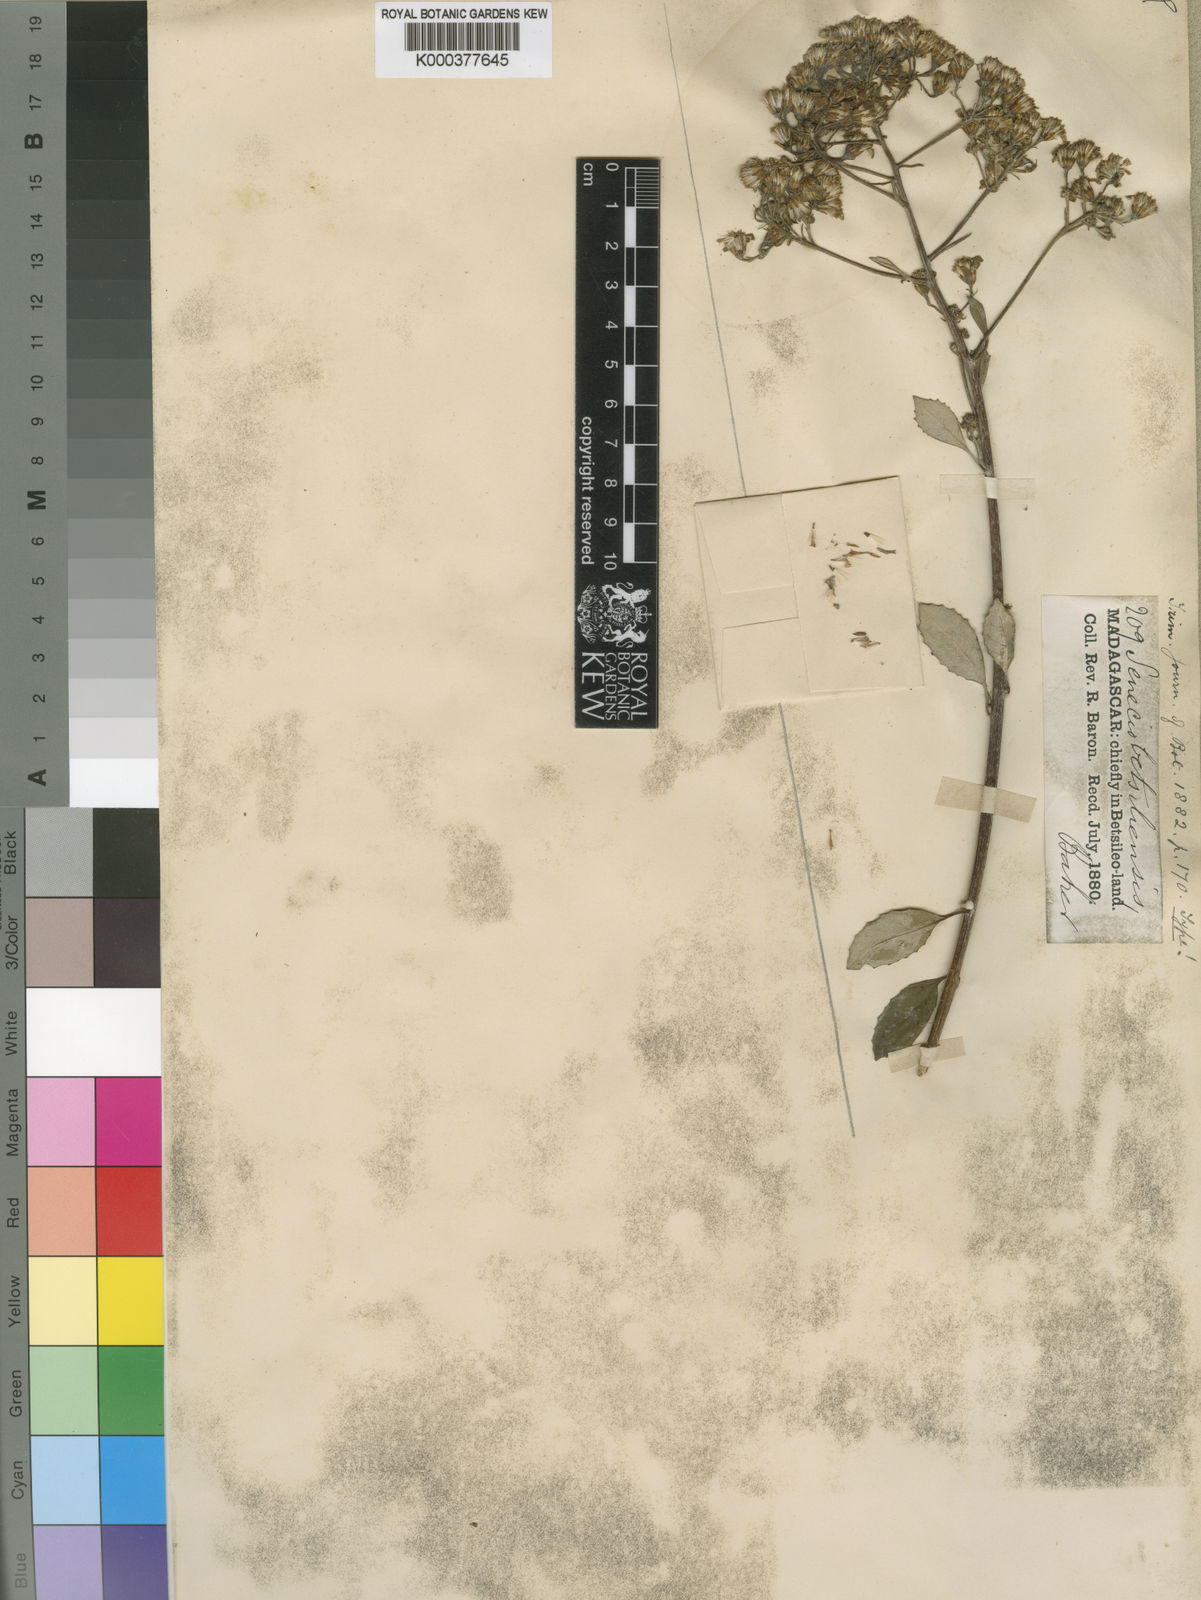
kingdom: Plantae
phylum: Tracheophyta
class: Magnoliopsida
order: Asterales
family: Asteraceae
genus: Hubertia
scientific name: Hubertia hypargyrea
